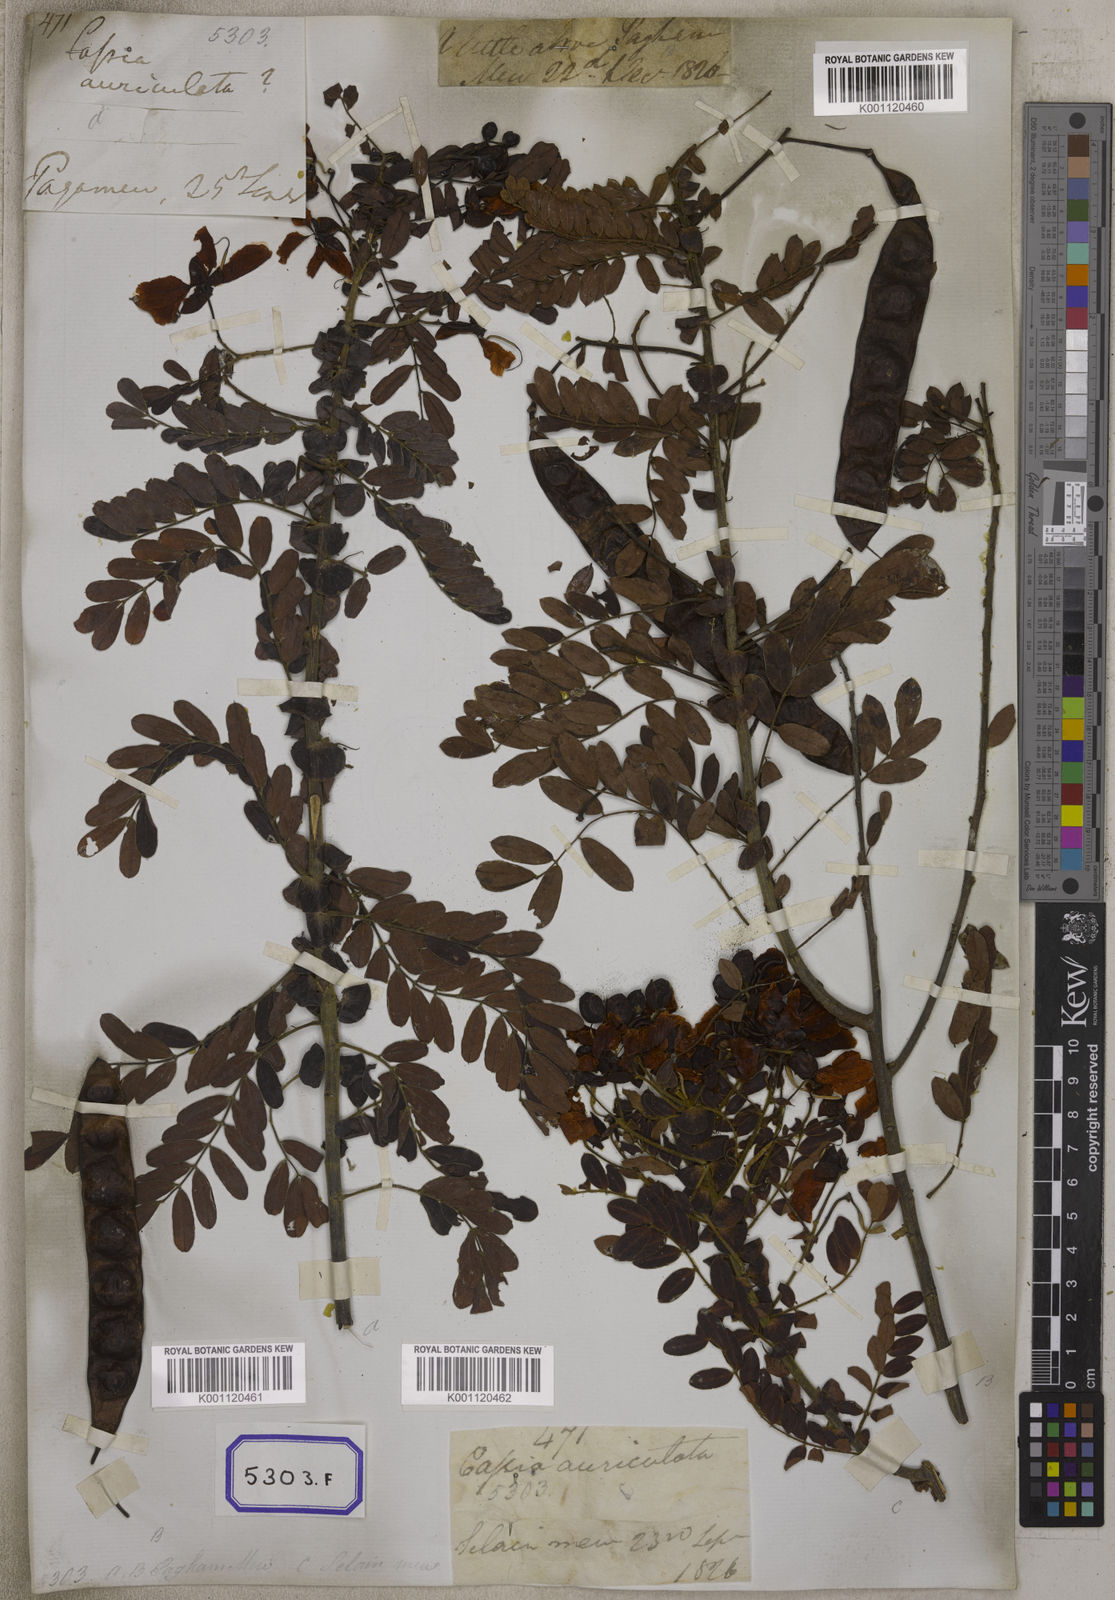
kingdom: Plantae
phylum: Tracheophyta
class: Magnoliopsida
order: Fabales
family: Fabaceae
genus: Senna
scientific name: Senna auriculata
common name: Tanner's cassia
